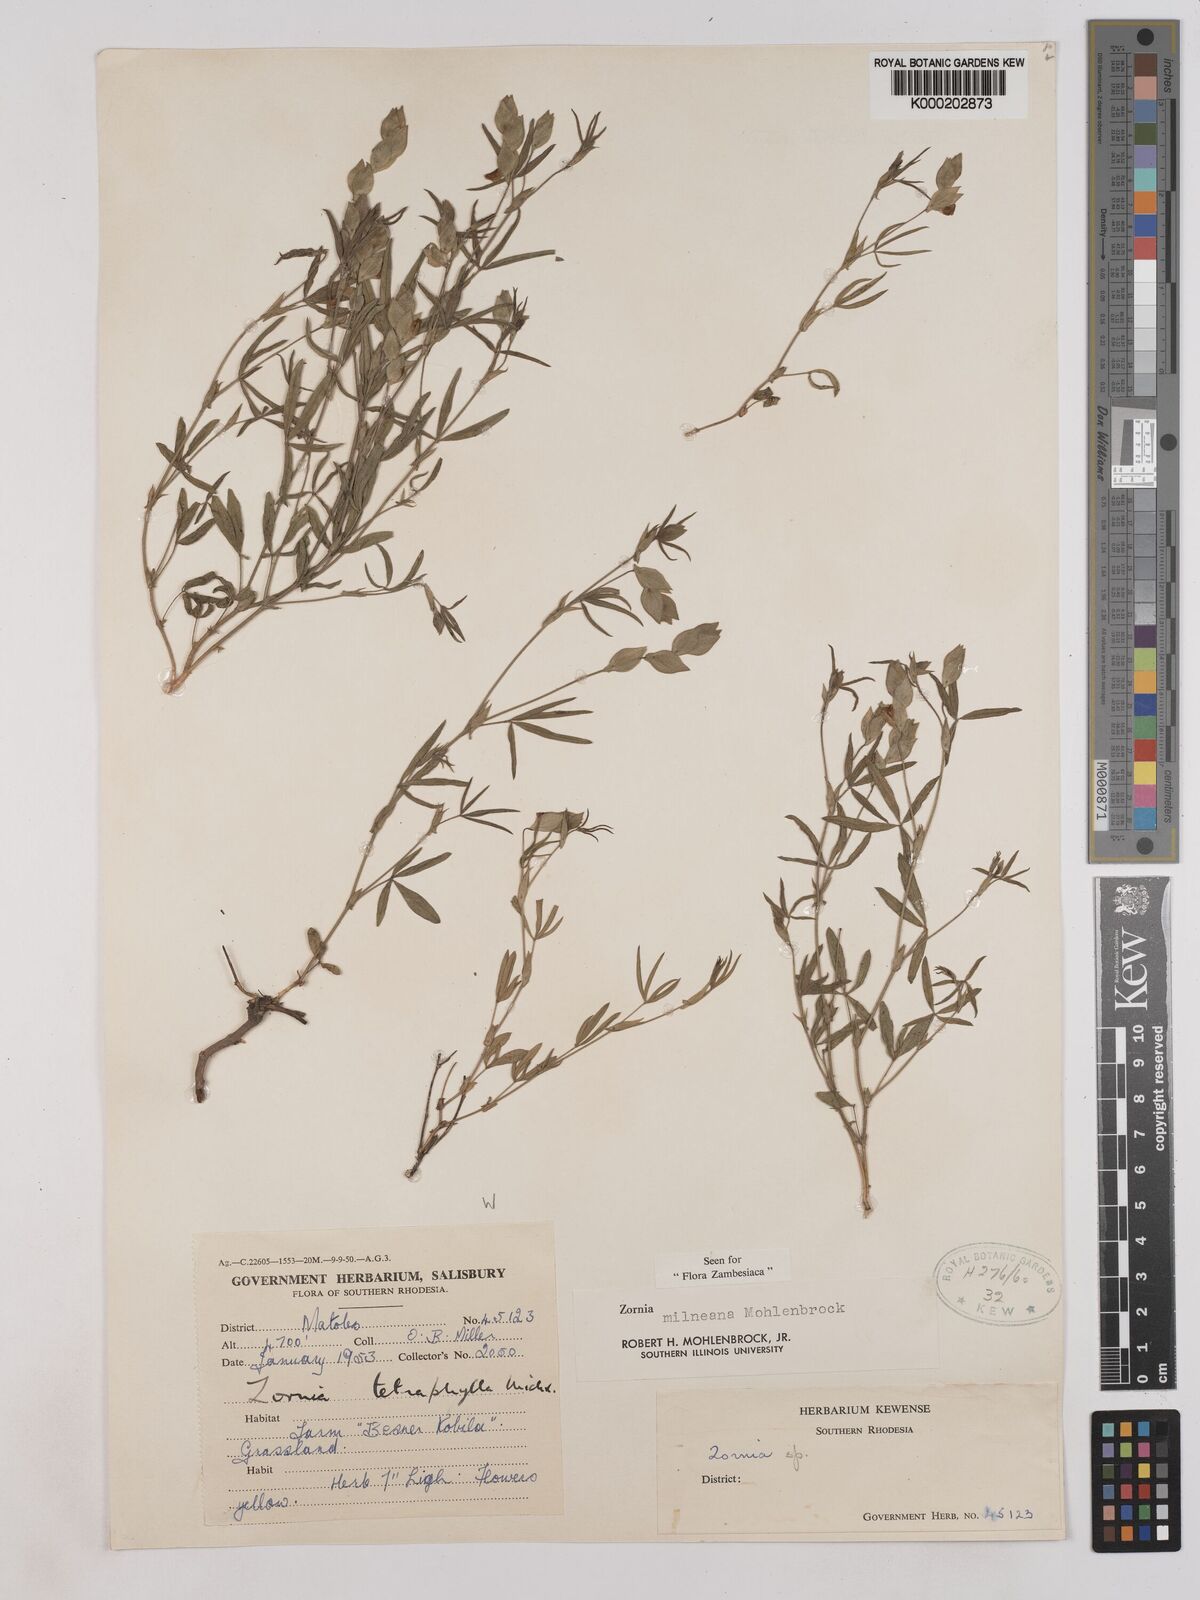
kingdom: Plantae
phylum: Tracheophyta
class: Magnoliopsida
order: Fabales
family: Fabaceae
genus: Zornia
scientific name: Zornia milneana
